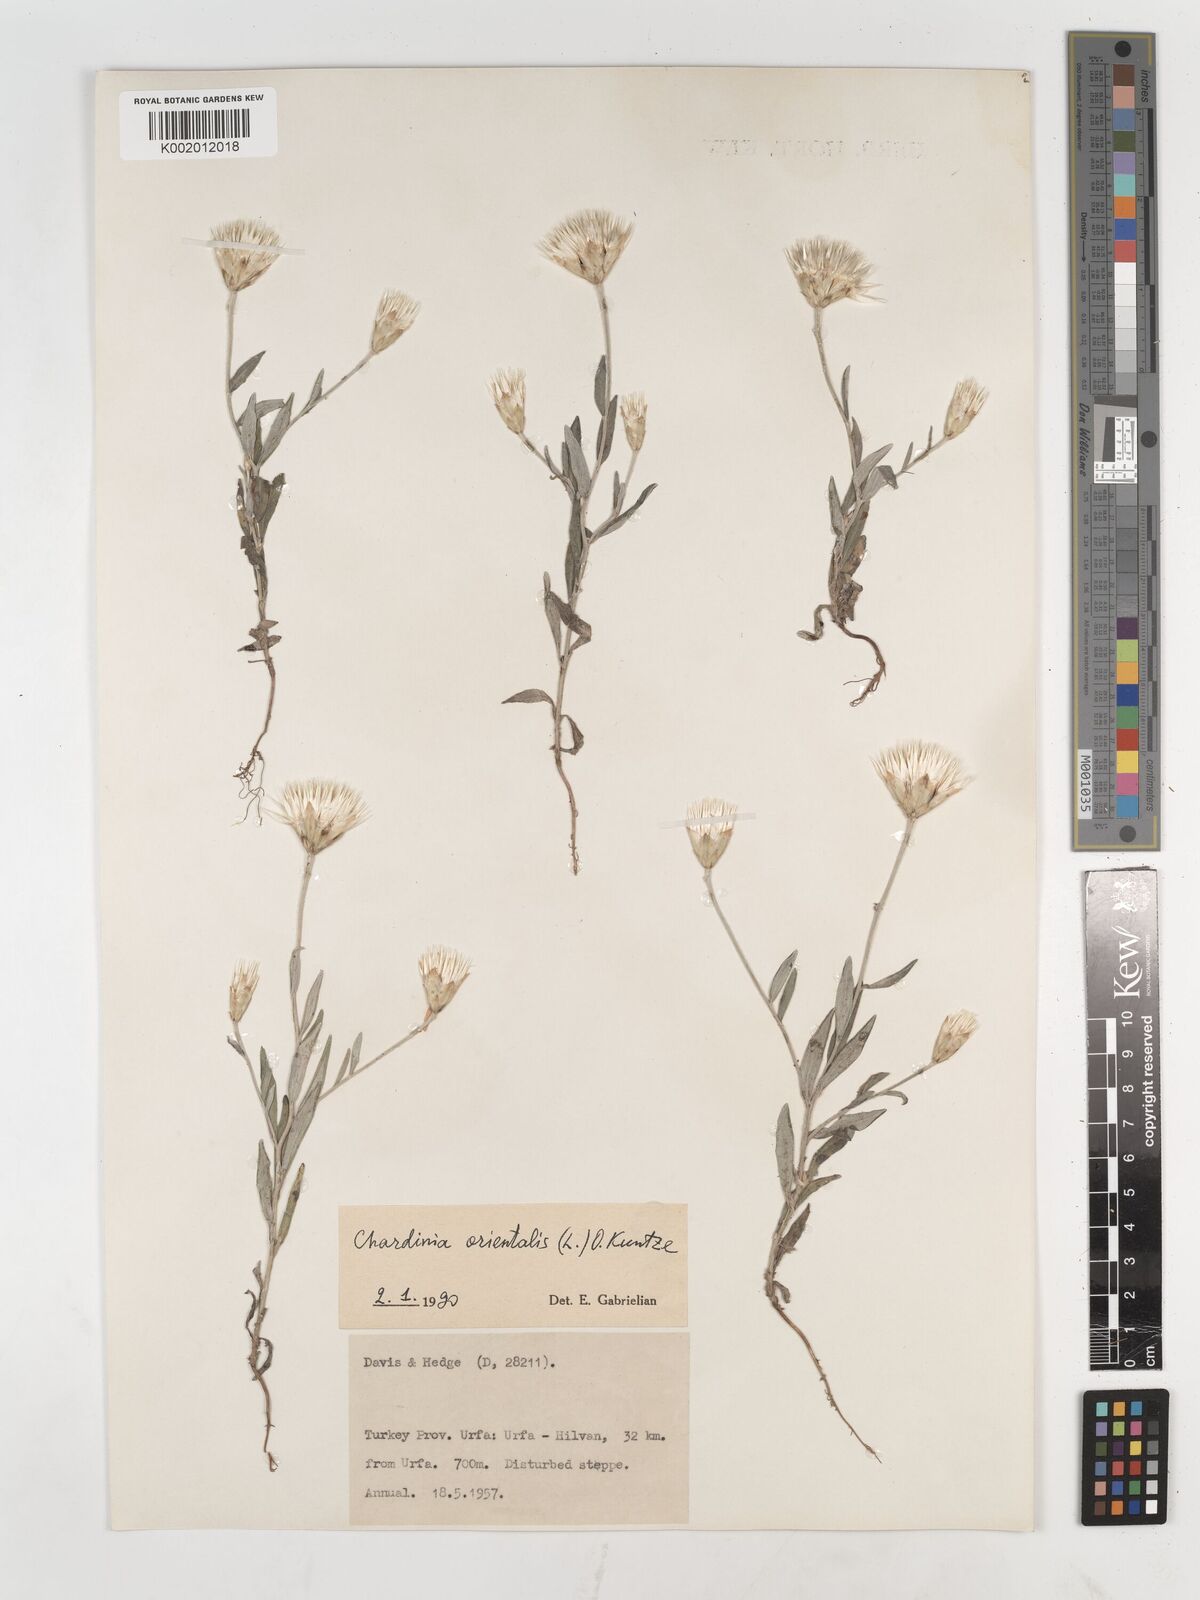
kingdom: Plantae
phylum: Tracheophyta
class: Magnoliopsida
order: Asterales
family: Asteraceae
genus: Chardinia
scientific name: Chardinia orientalis
